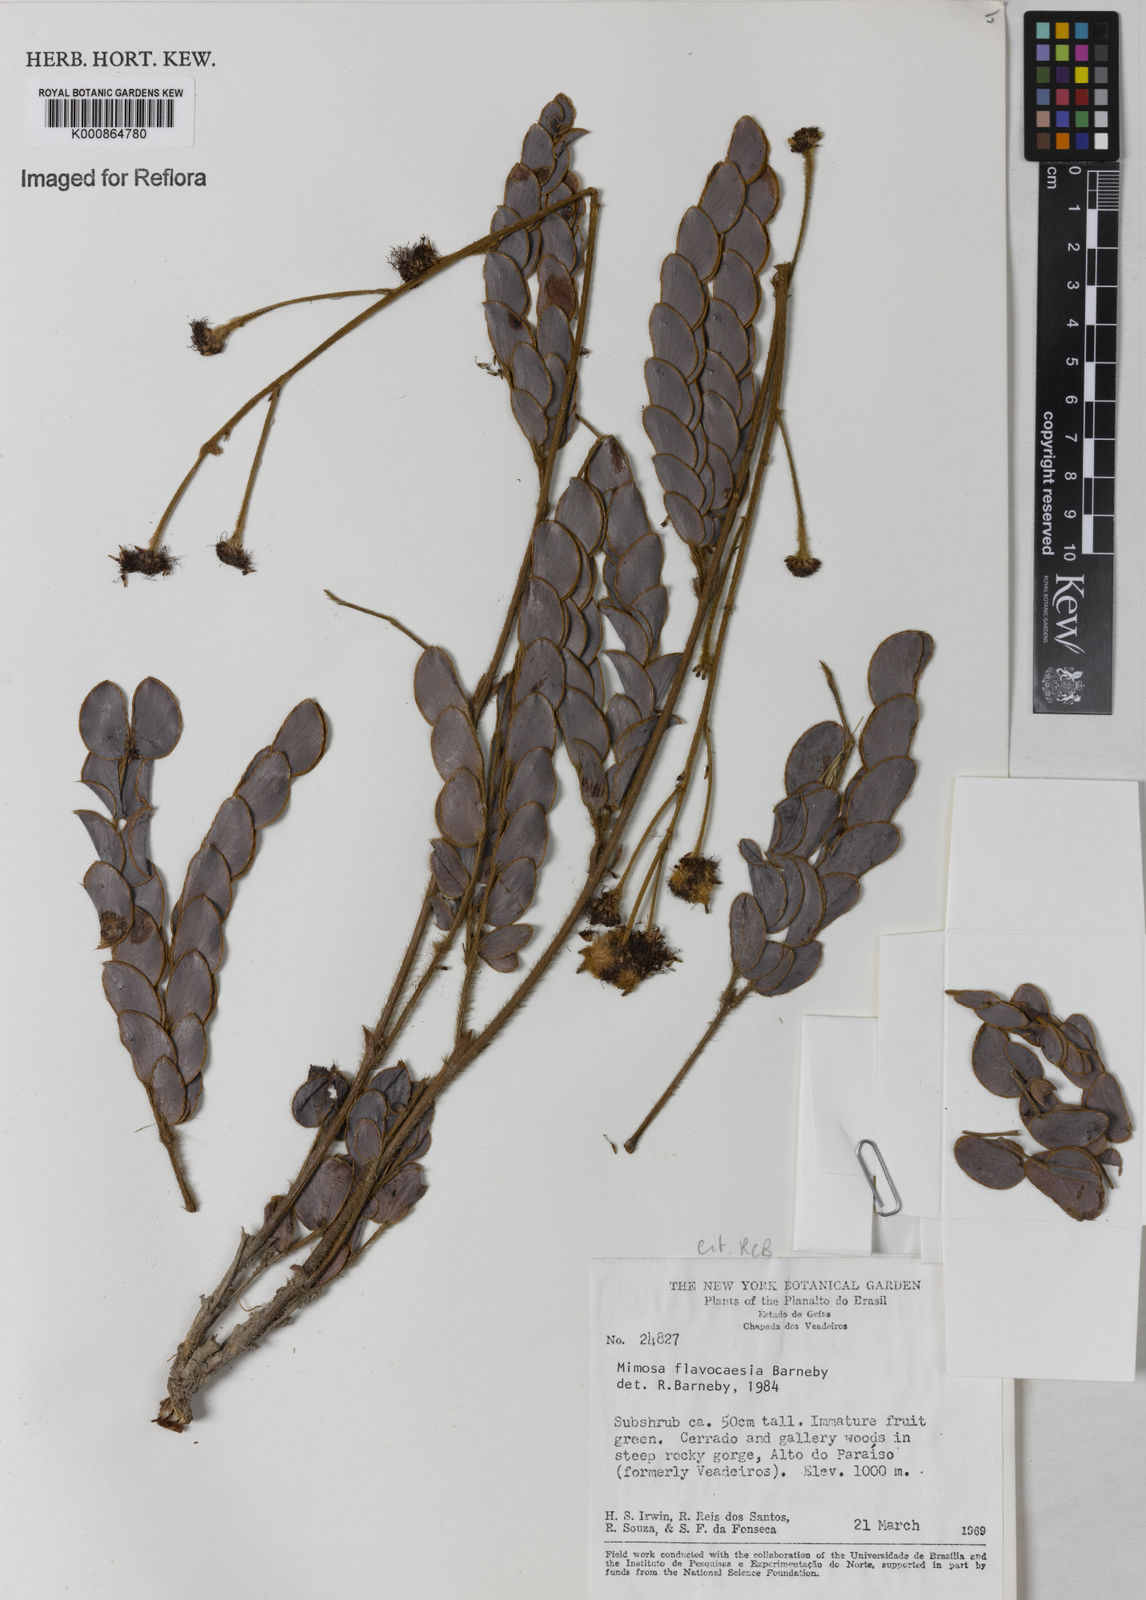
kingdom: Plantae
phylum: Tracheophyta
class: Magnoliopsida
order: Fabales
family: Fabaceae
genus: Mimosa
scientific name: Mimosa
